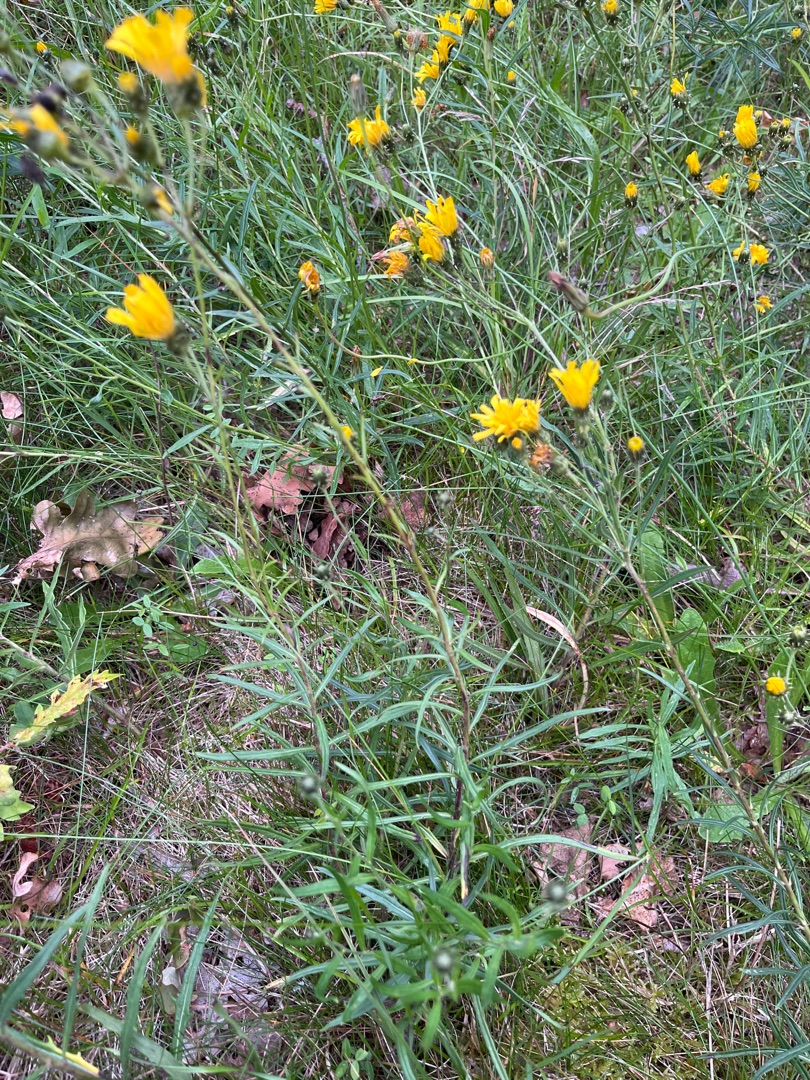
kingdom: Plantae
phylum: Tracheophyta
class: Magnoliopsida
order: Asterales
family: Asteraceae
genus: Hieracium
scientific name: Hieracium umbellatum
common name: Smalbladet høgeurt
